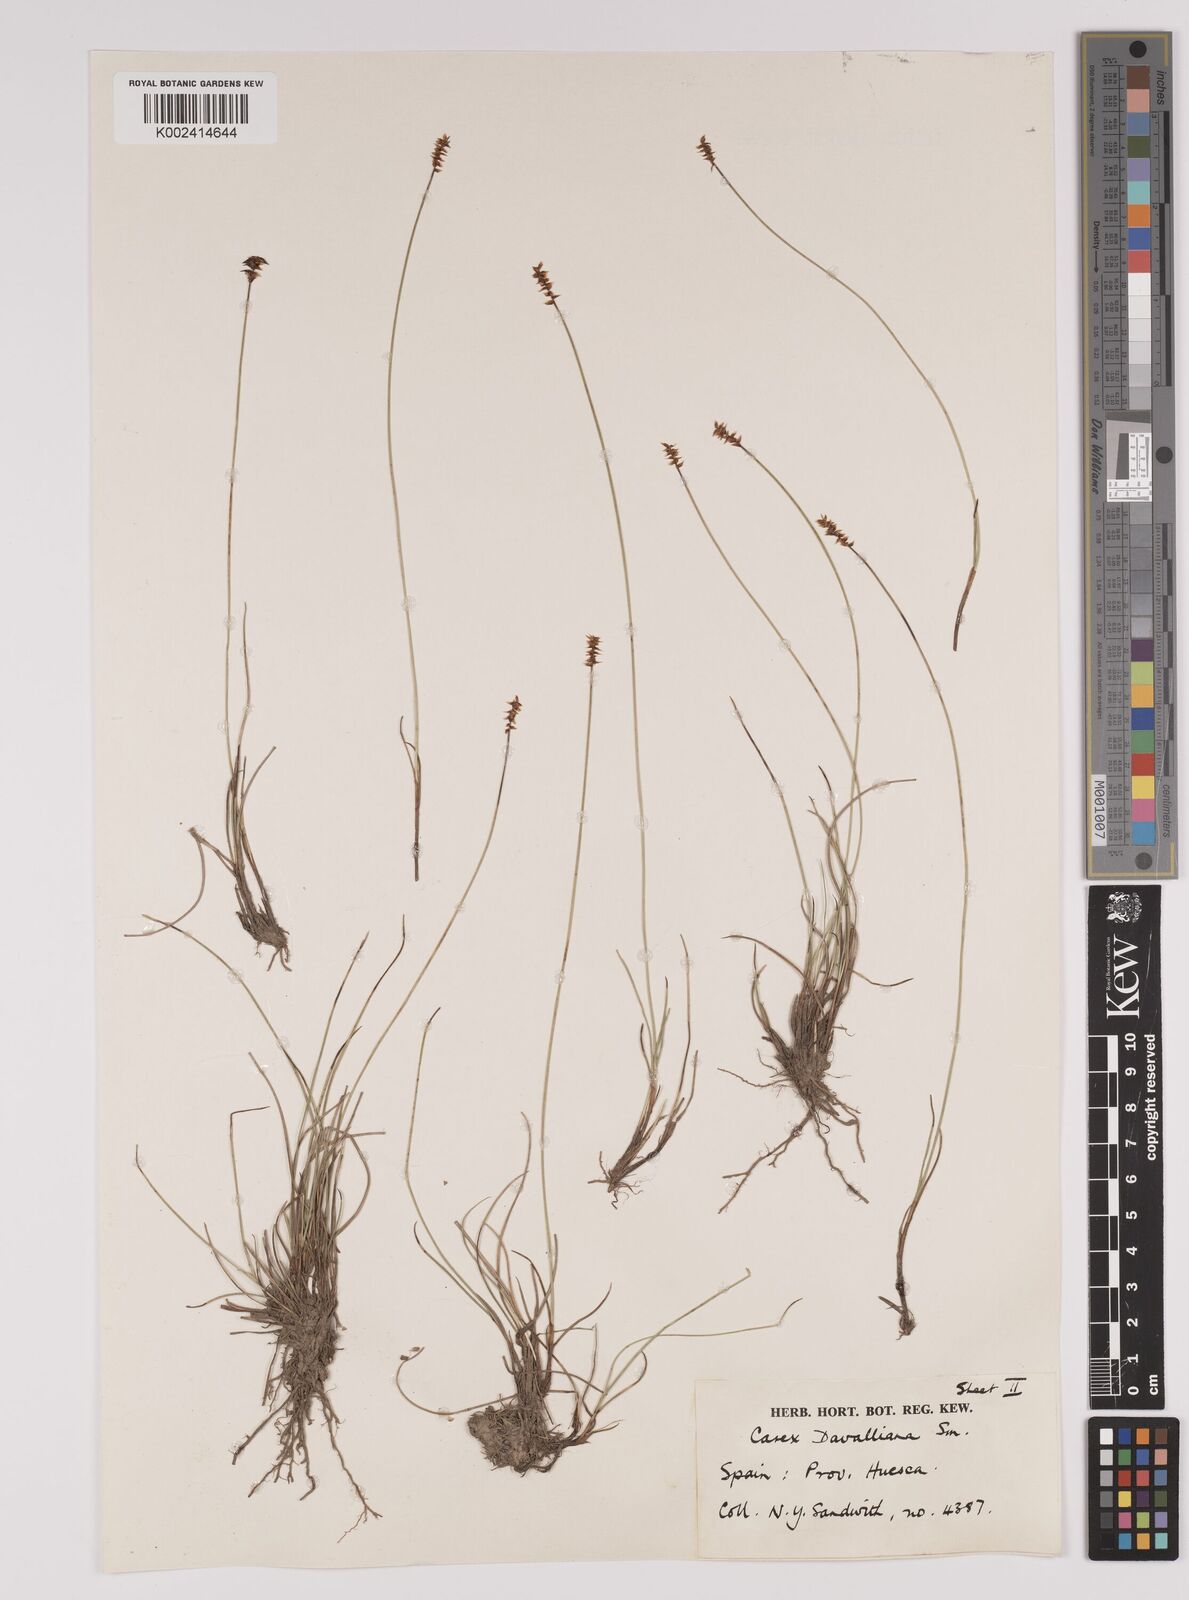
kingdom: Plantae
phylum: Tracheophyta
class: Liliopsida
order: Poales
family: Cyperaceae
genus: Carex
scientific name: Carex davalliana
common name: Davall's sedge
